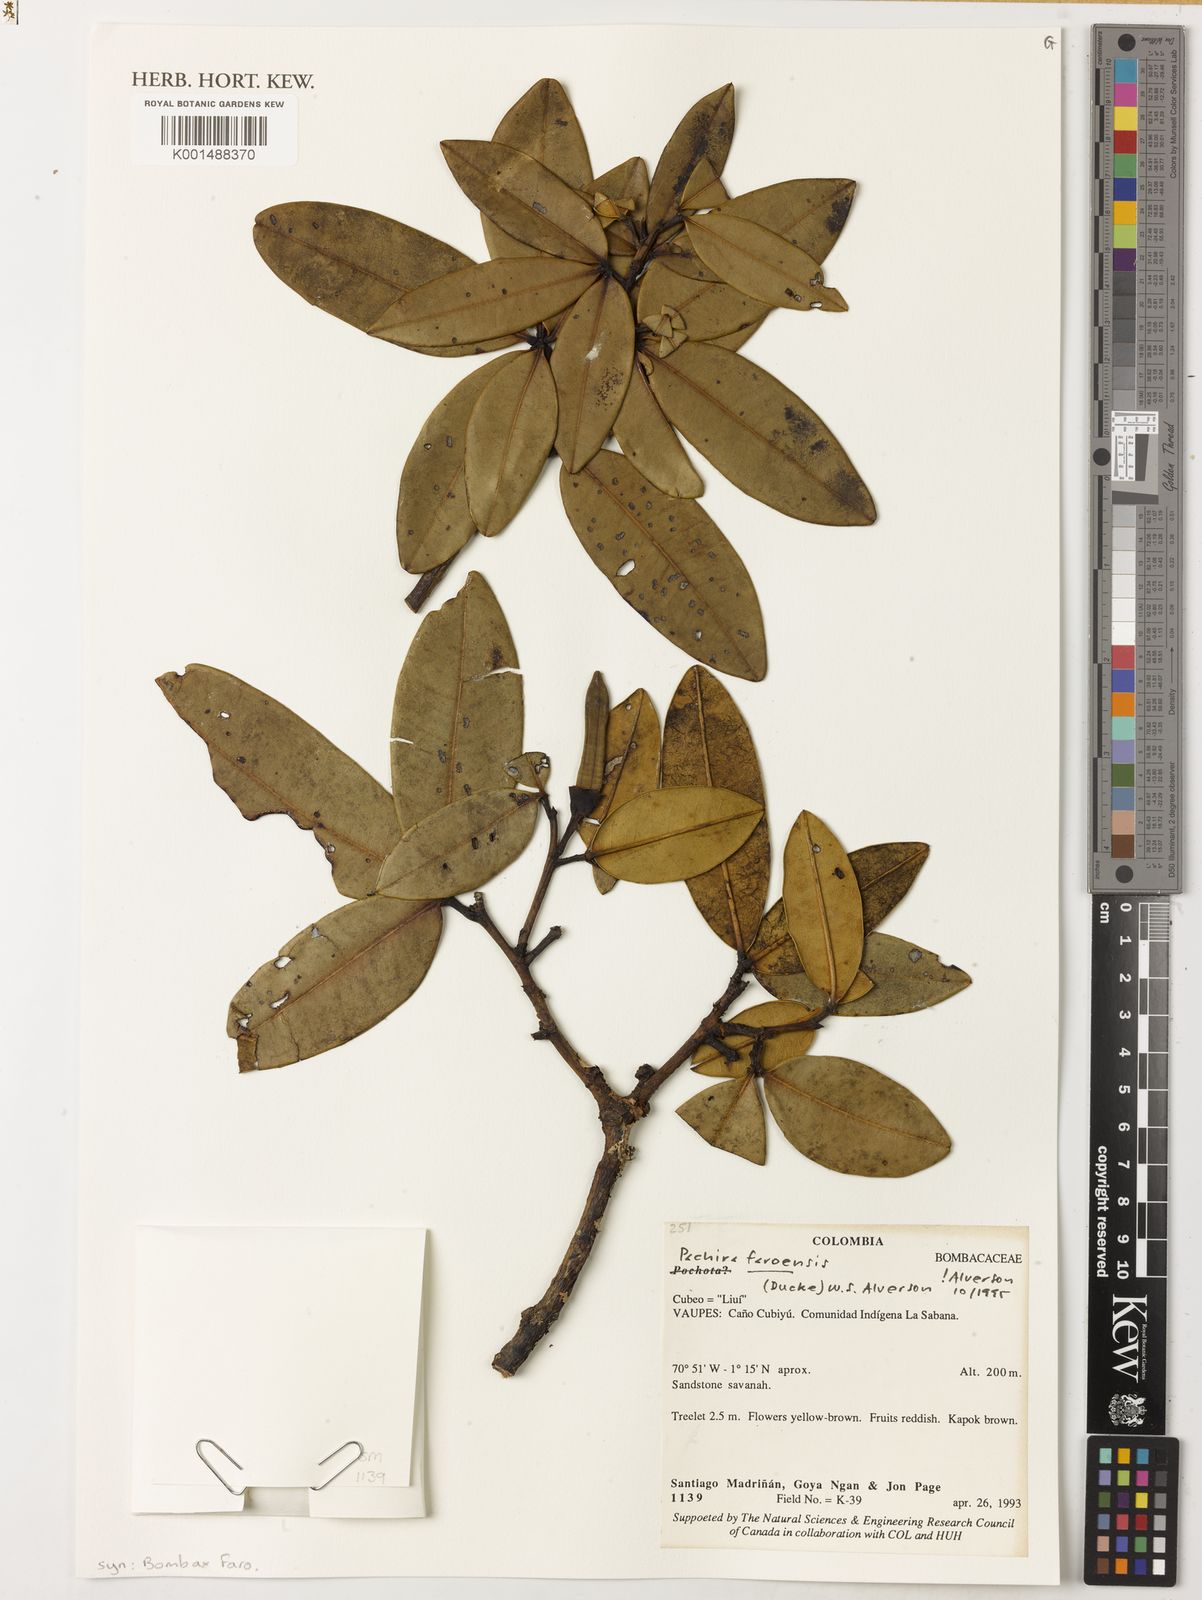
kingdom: Plantae
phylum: Tracheophyta
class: Magnoliopsida
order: Malvales
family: Malvaceae
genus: Pachira
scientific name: Pachira faroensis
